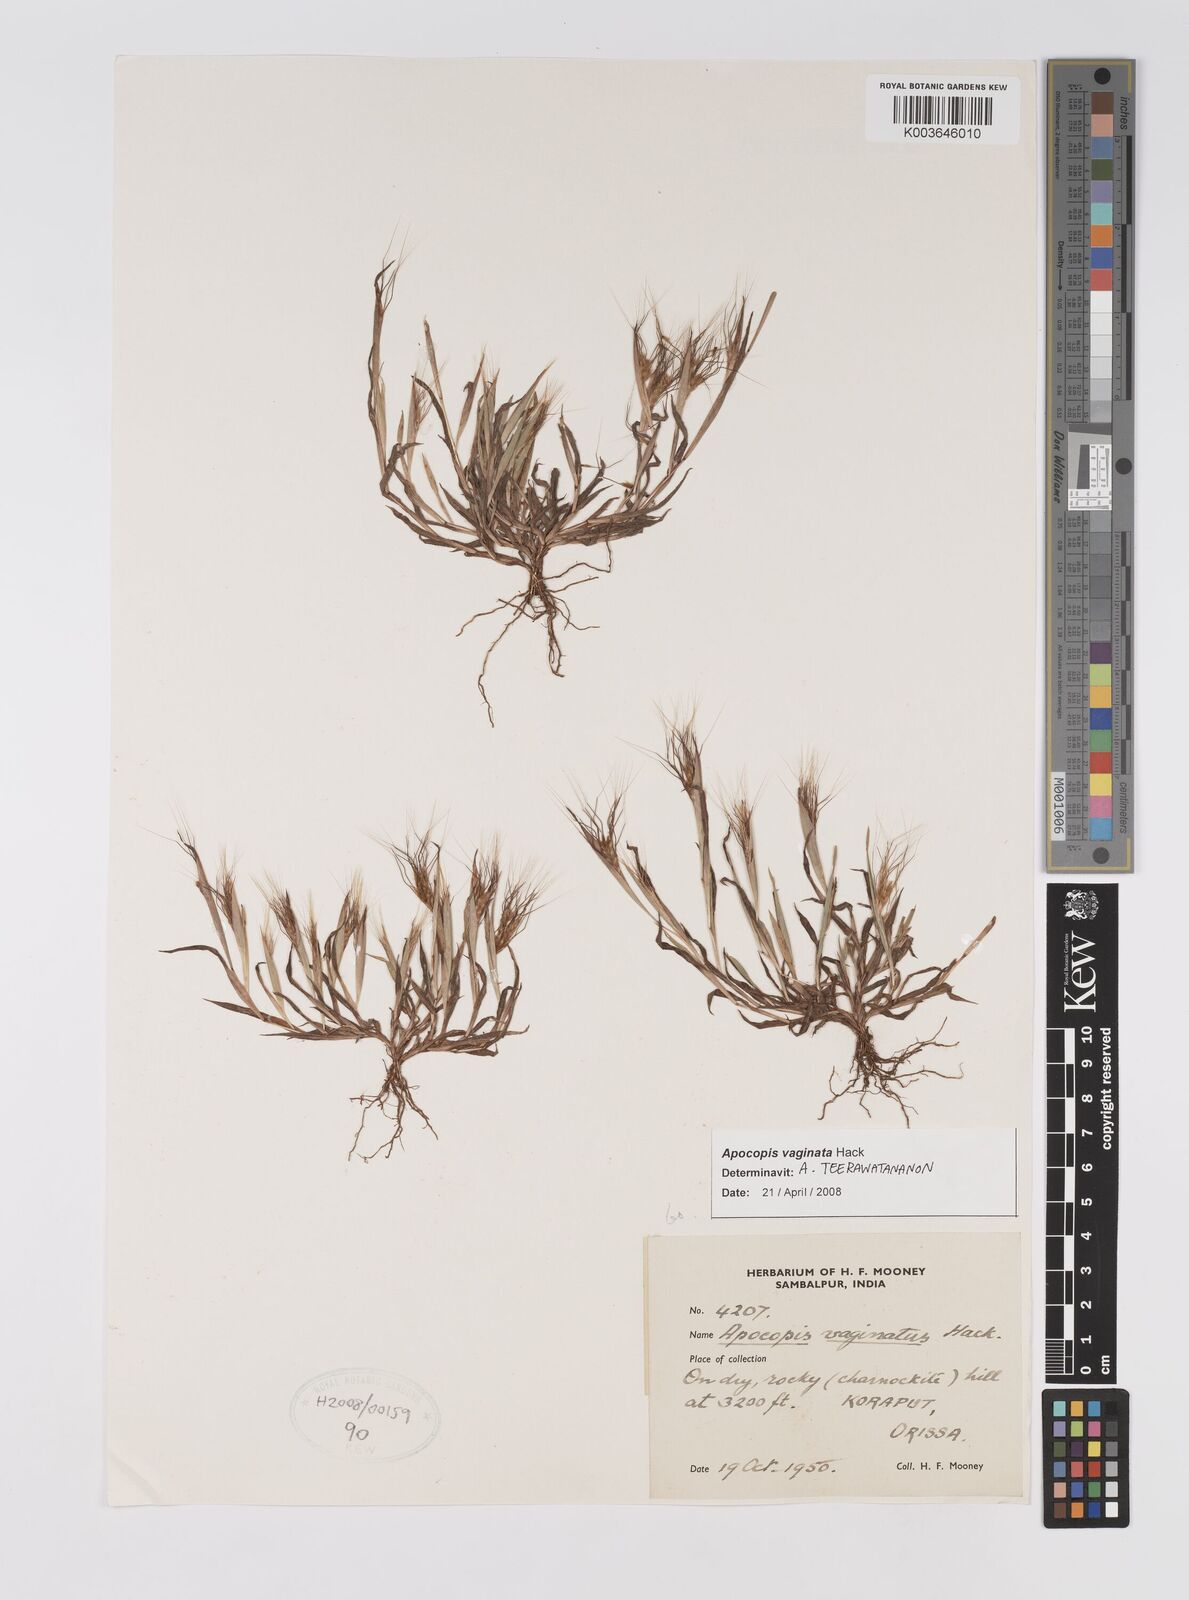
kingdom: Plantae
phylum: Tracheophyta
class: Liliopsida
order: Poales
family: Poaceae
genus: Apocopis
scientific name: Apocopis vaginatus
